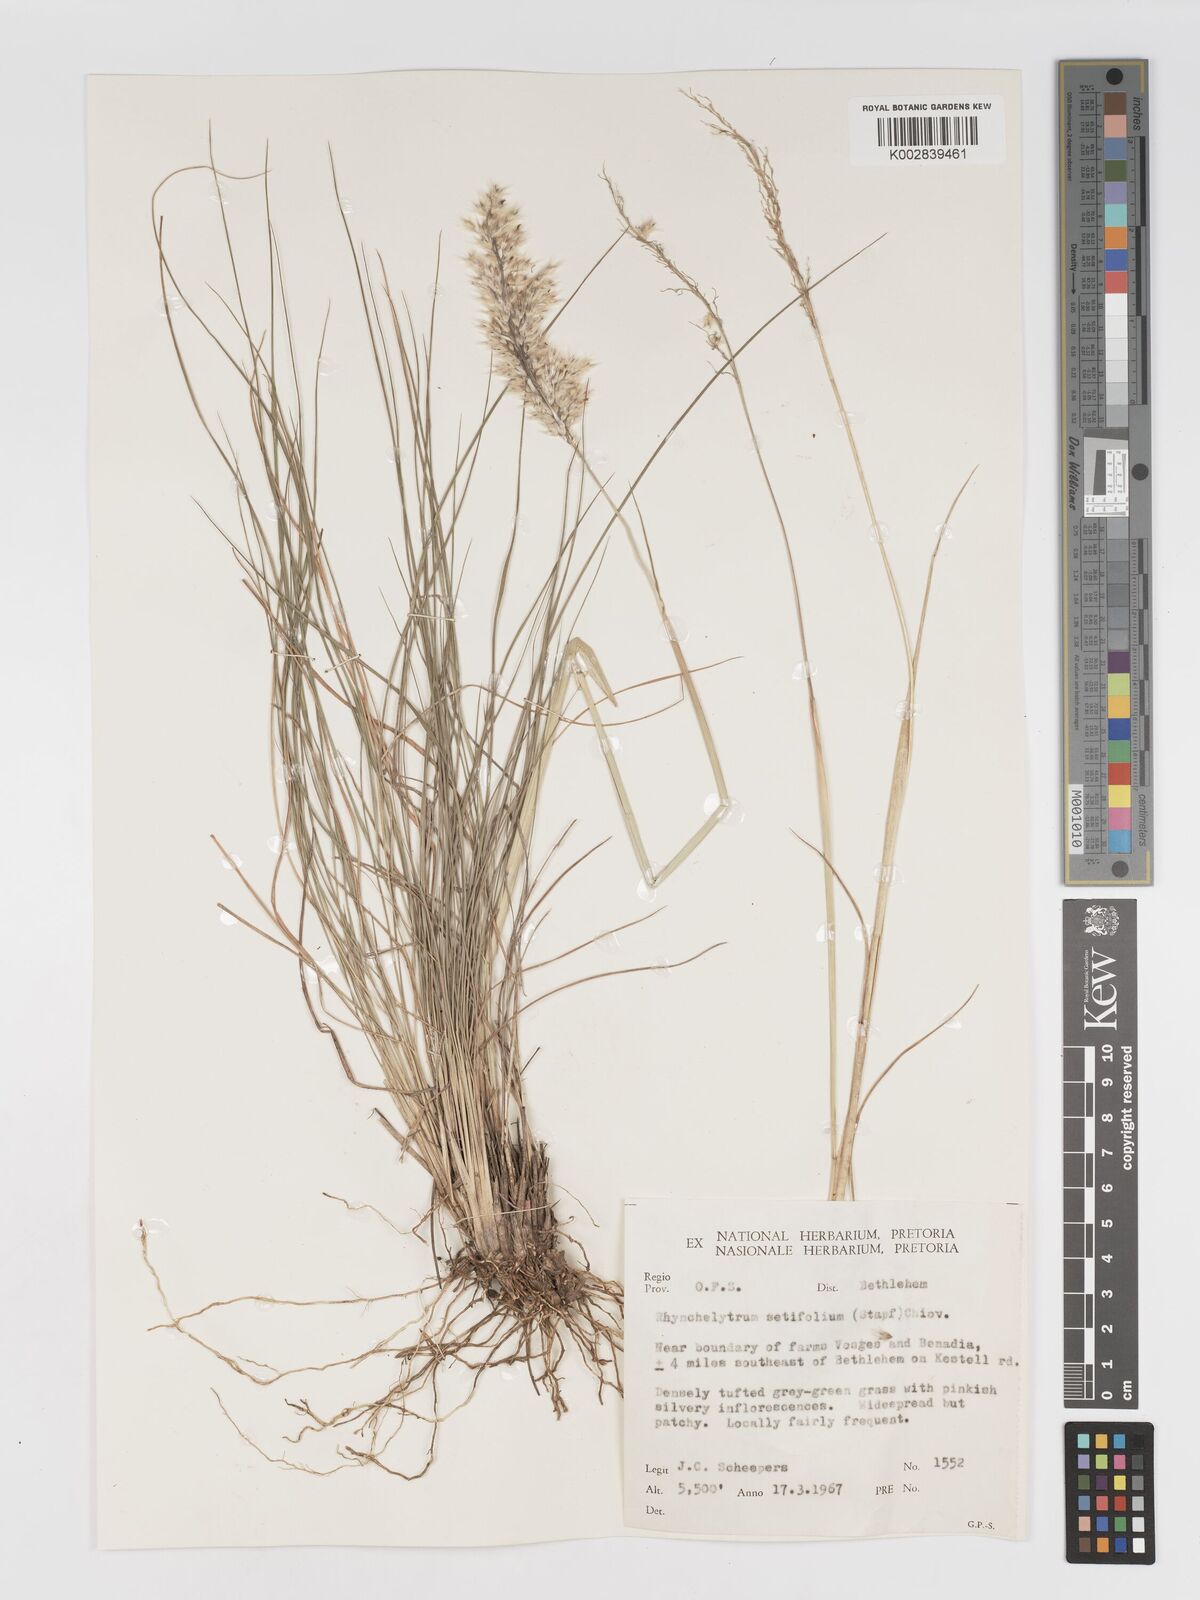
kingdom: Plantae
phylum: Tracheophyta
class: Liliopsida
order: Poales
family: Poaceae
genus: Melinis
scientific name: Melinis nerviglumis
